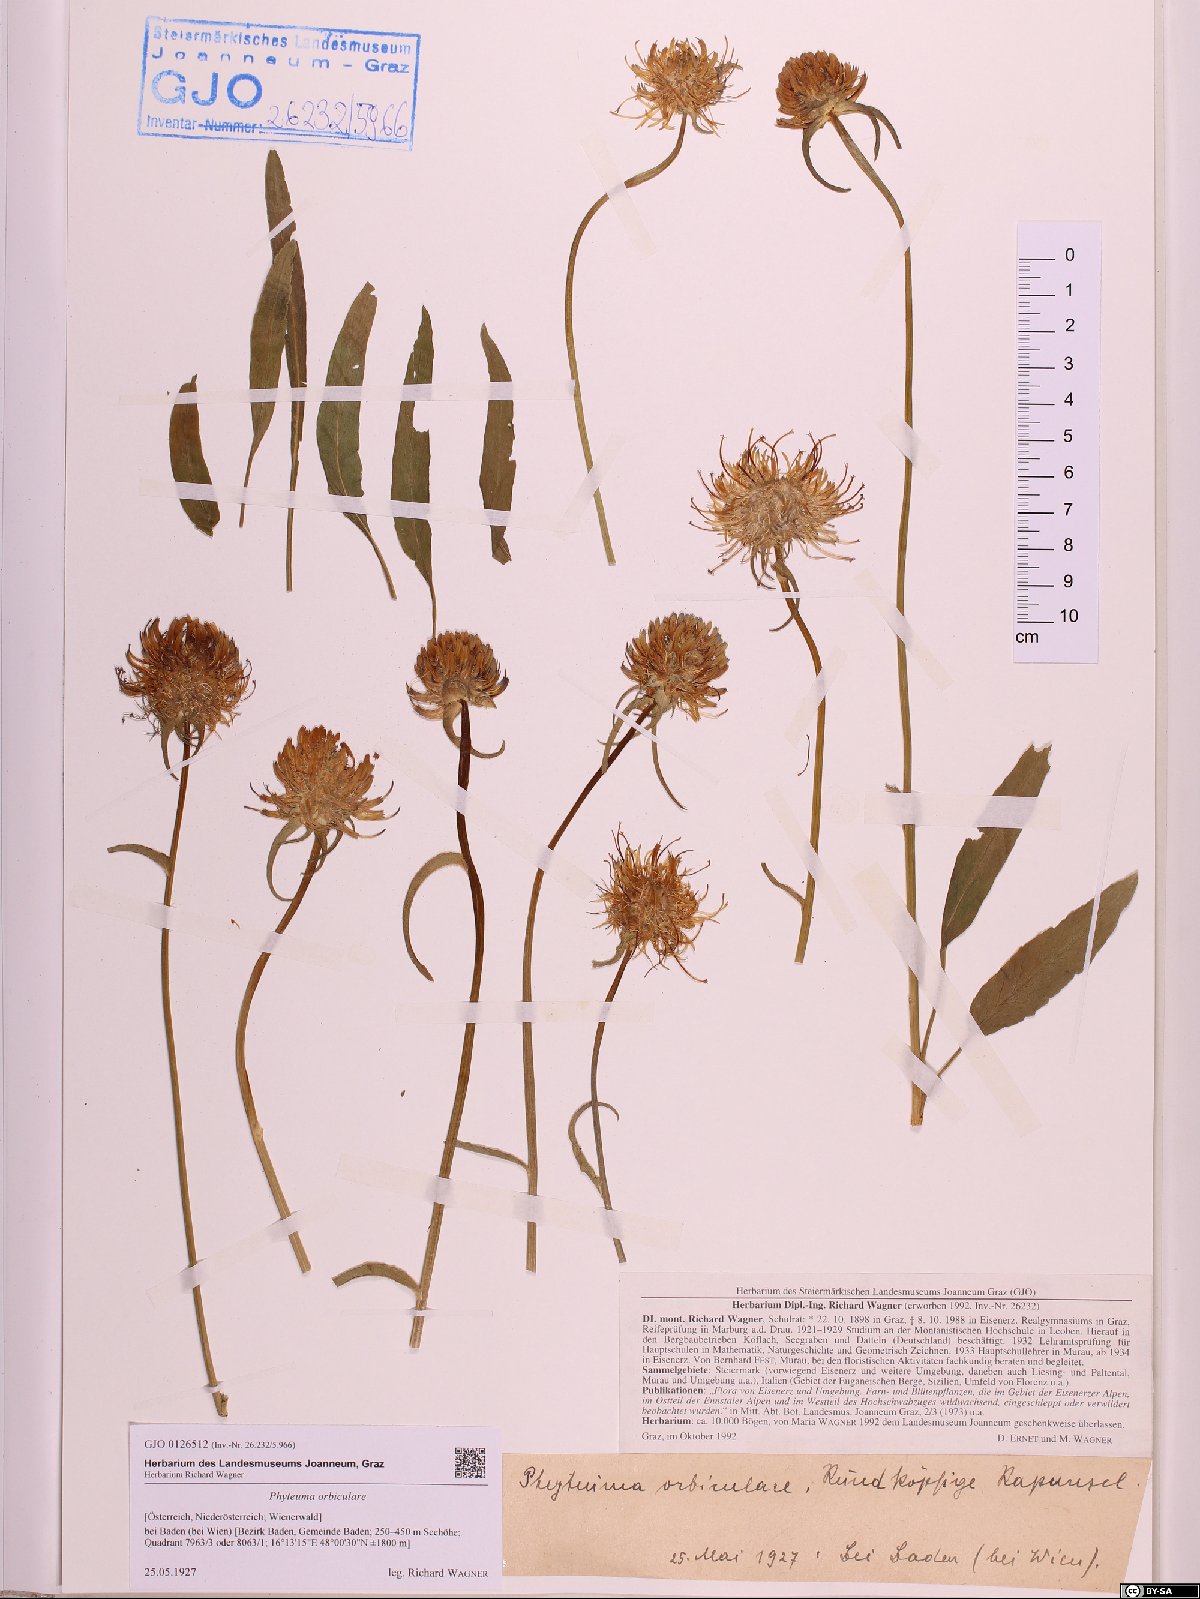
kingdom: Plantae
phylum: Tracheophyta
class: Magnoliopsida
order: Asterales
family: Campanulaceae
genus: Phyteuma
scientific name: Phyteuma orbiculare
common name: Round-headed rampion
